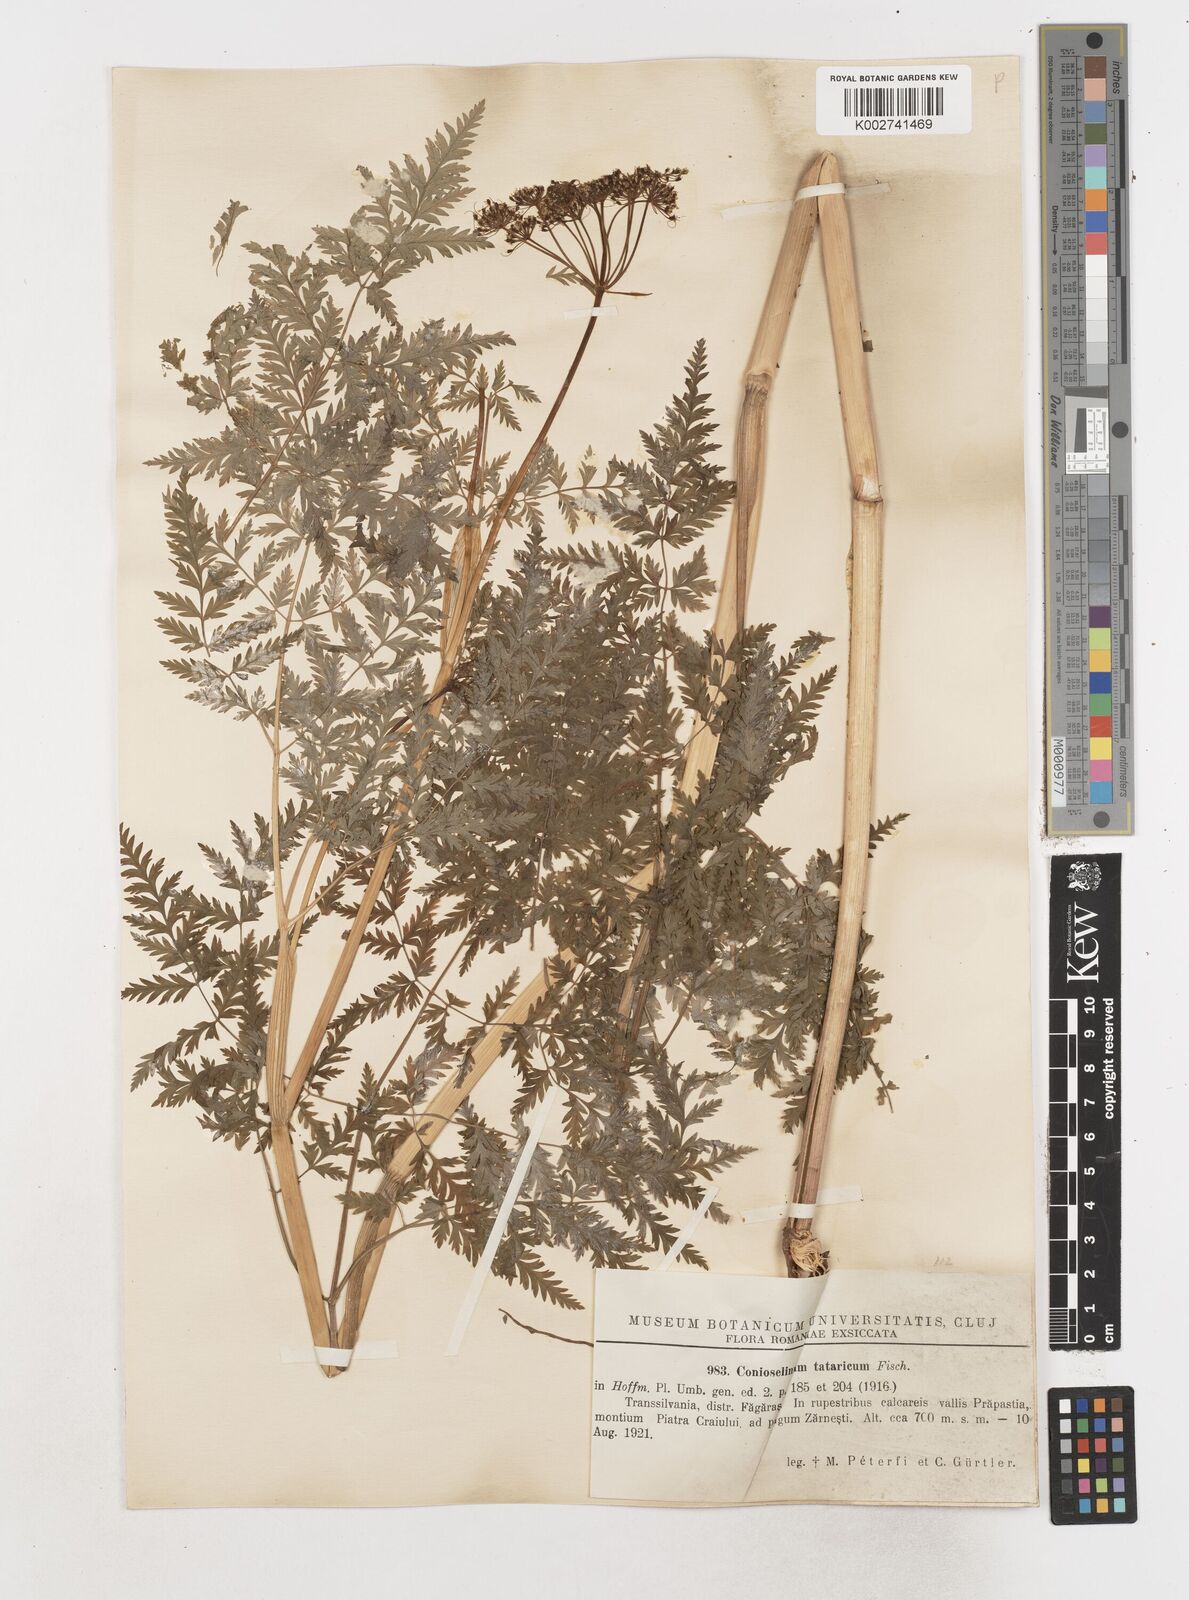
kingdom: Plantae
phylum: Tracheophyta
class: Magnoliopsida
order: Apiales
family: Apiaceae
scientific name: Apiaceae
